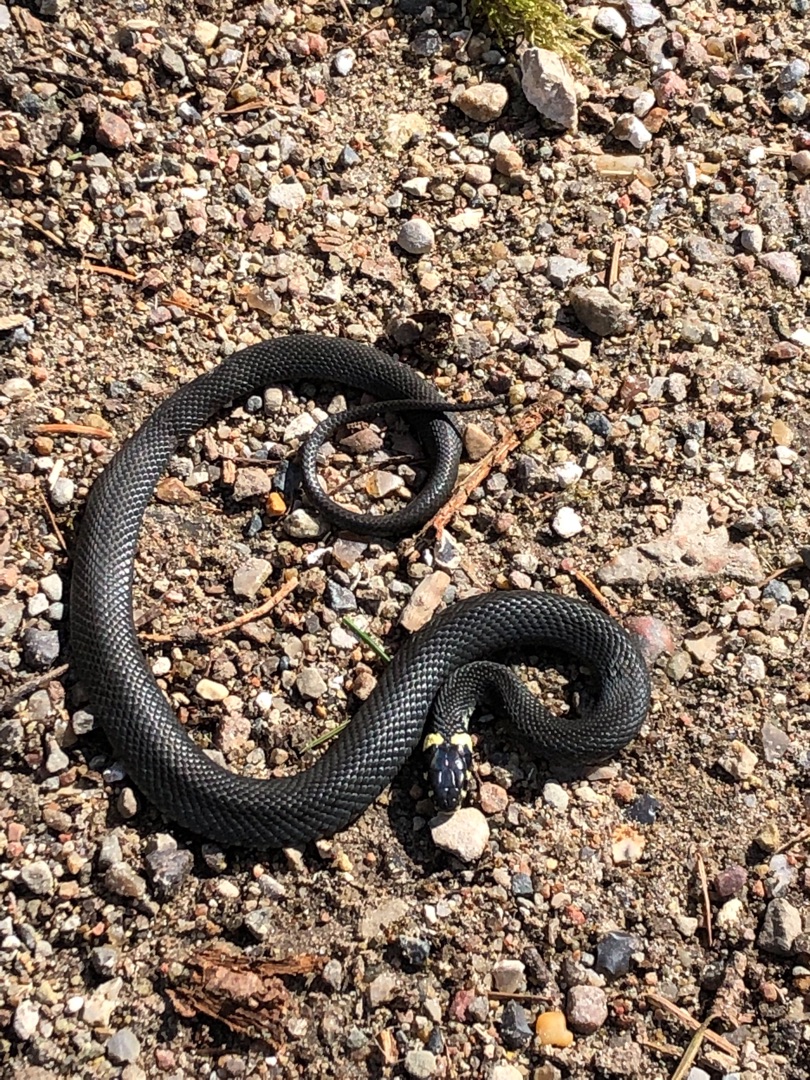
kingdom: Animalia
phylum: Chordata
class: Squamata
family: Colubridae
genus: Natrix
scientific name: Natrix natrix
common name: Snog
